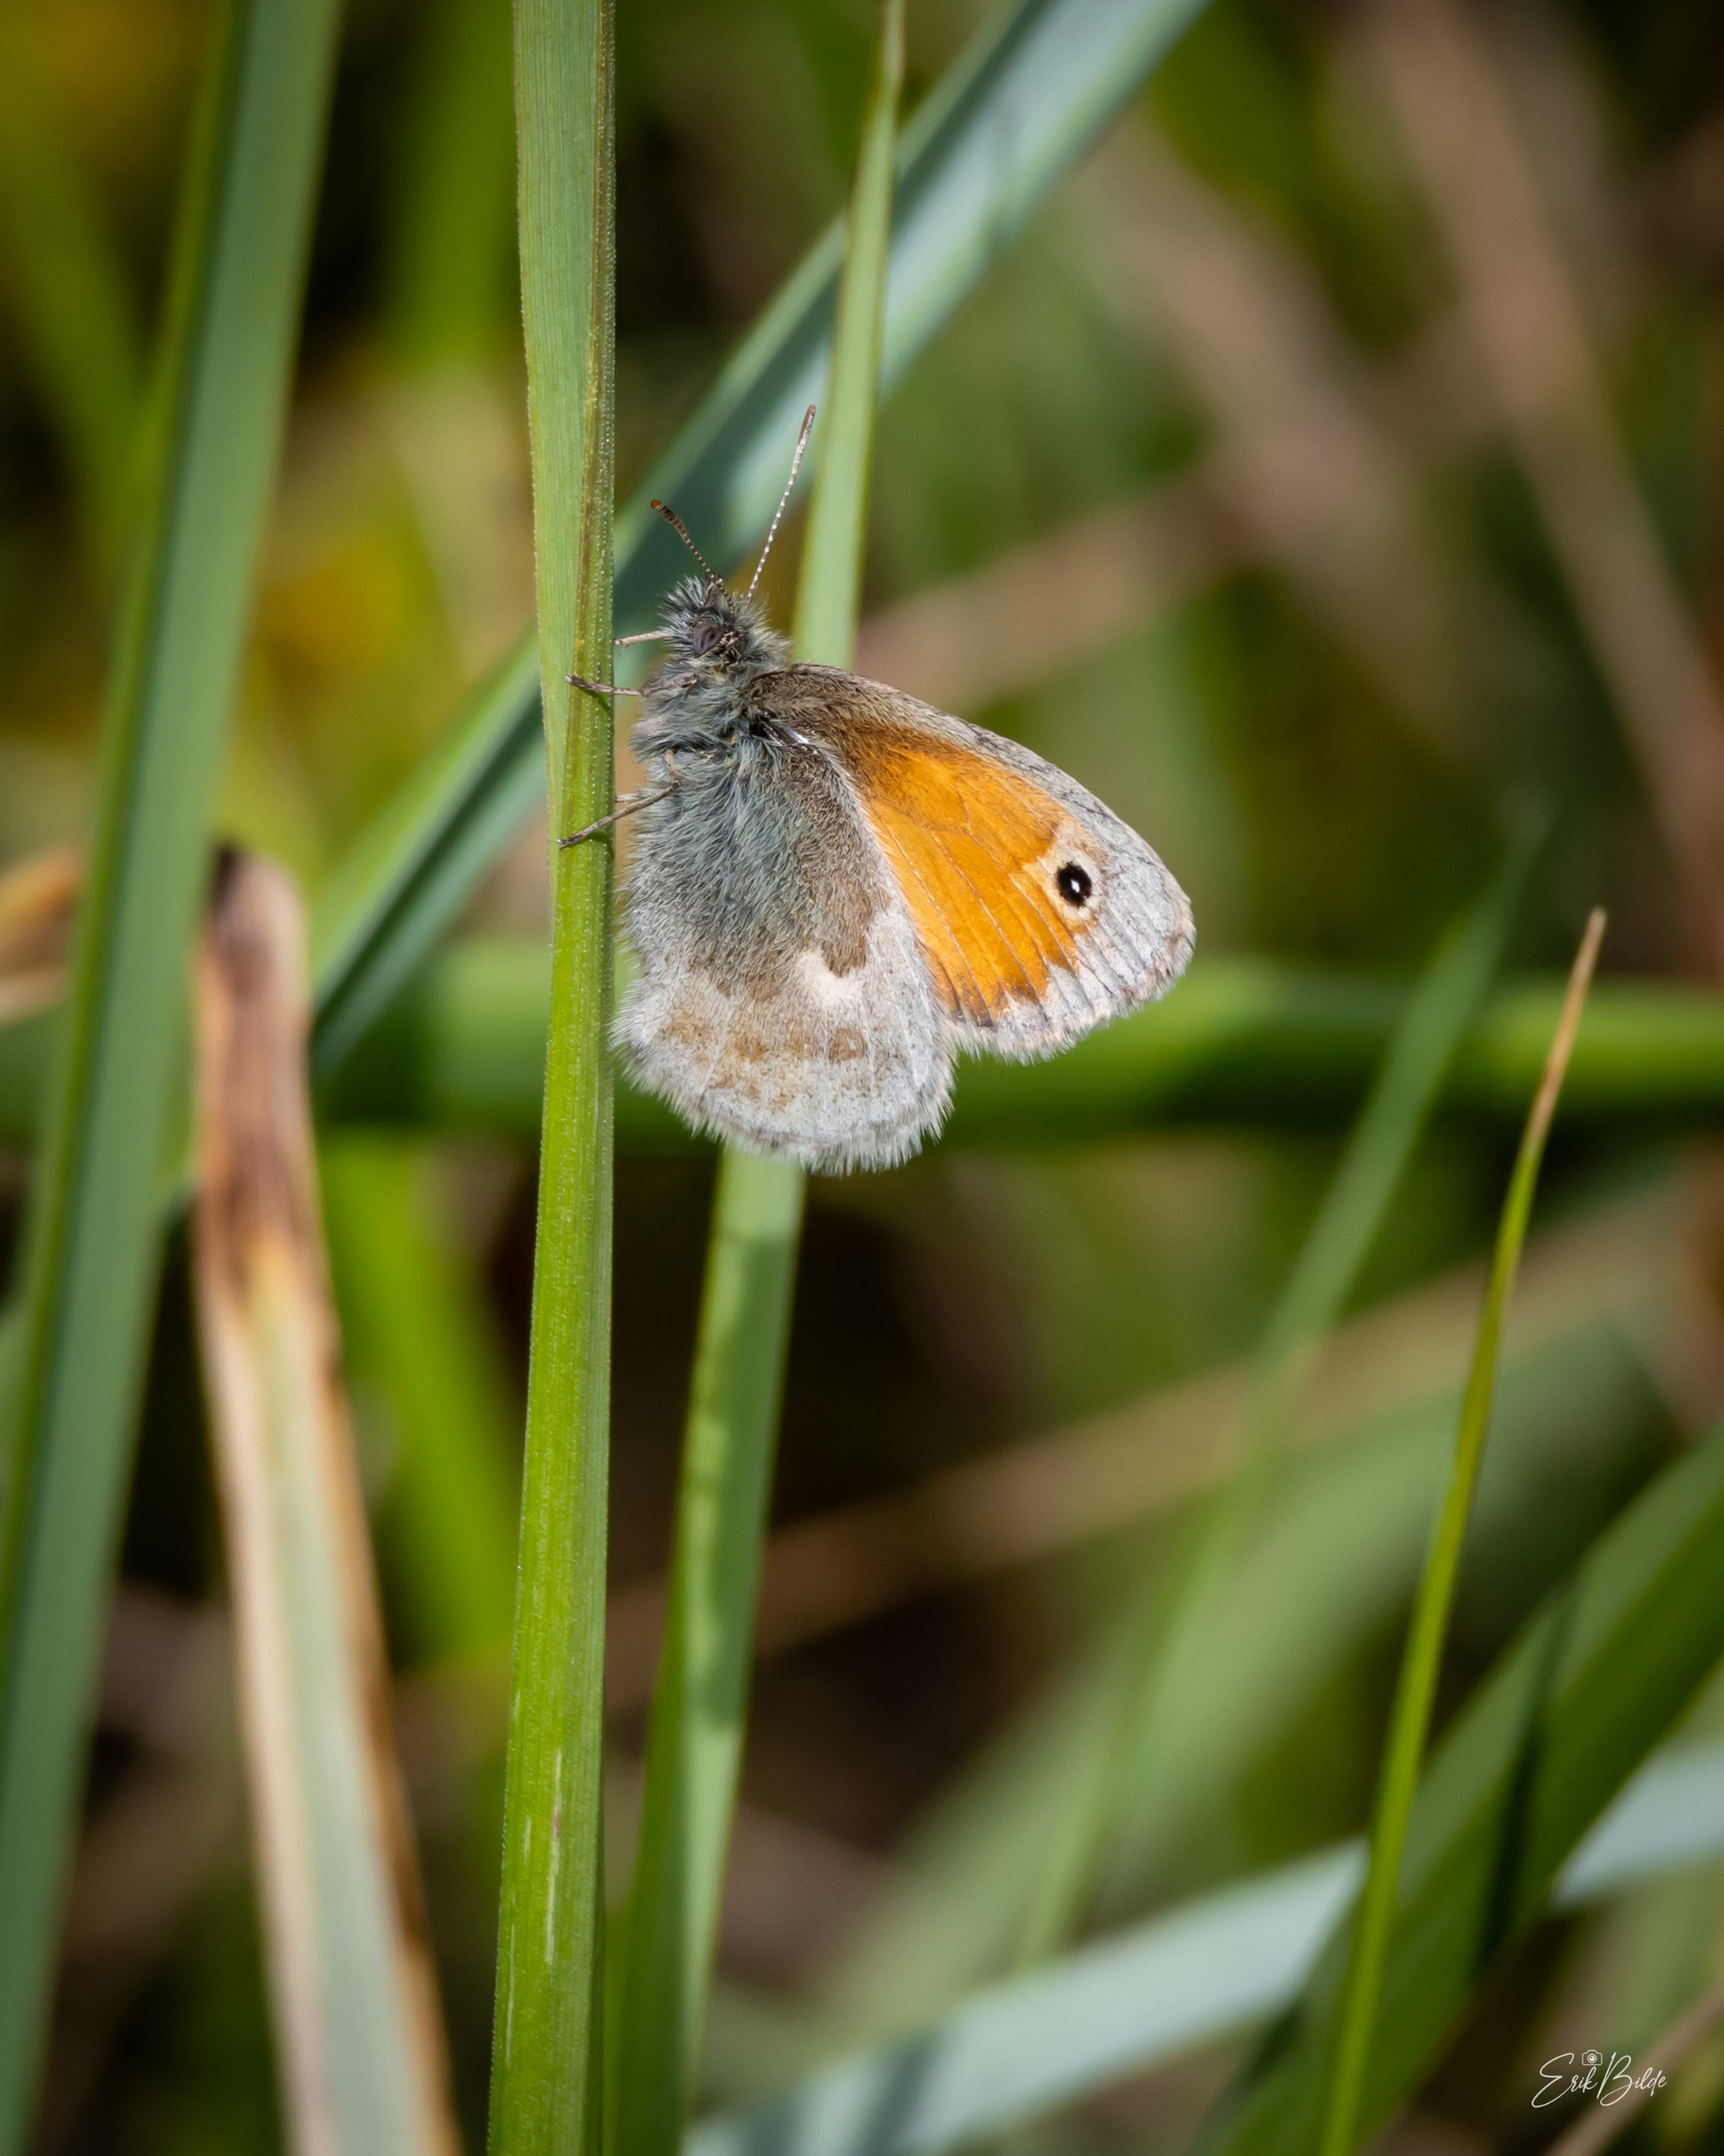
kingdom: Animalia
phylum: Arthropoda
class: Insecta
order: Lepidoptera
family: Nymphalidae
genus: Coenonympha
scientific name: Coenonympha pamphilus
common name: Okkergul randøje
